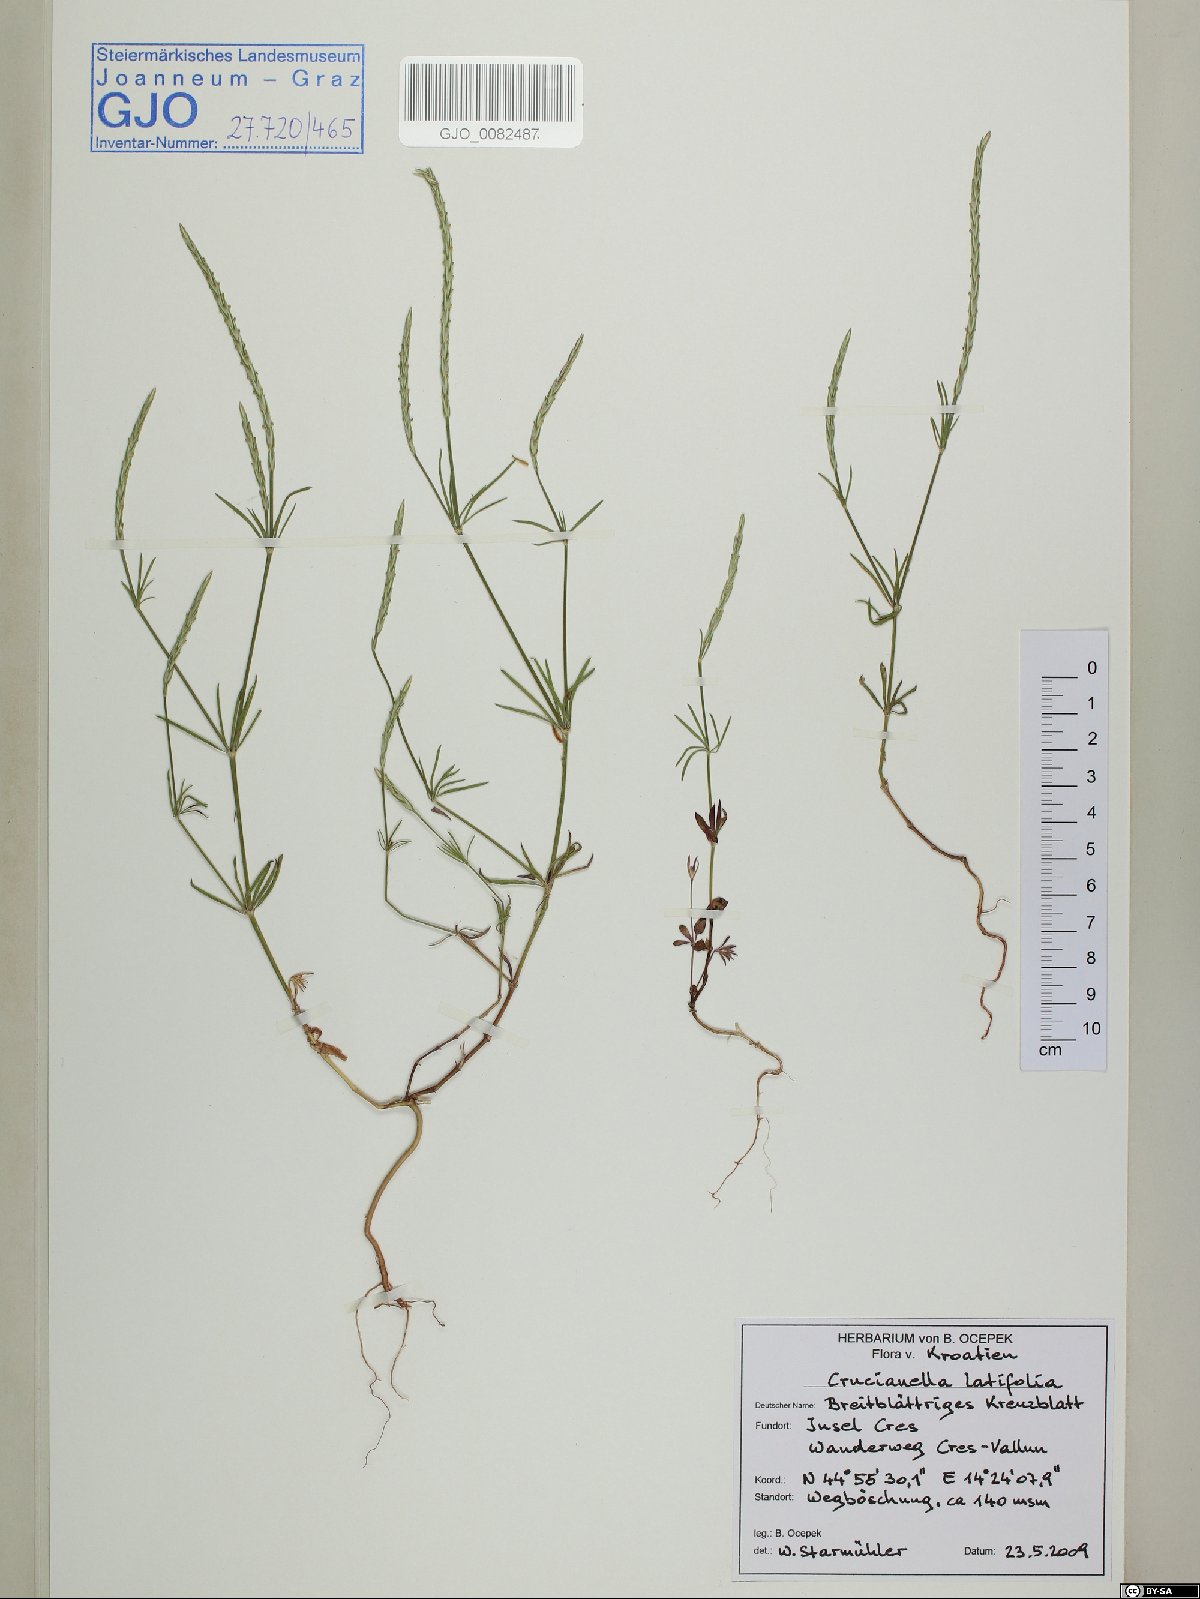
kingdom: Plantae
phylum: Tracheophyta
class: Magnoliopsida
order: Gentianales
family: Rubiaceae
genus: Crucianella
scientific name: Crucianella latifolia
